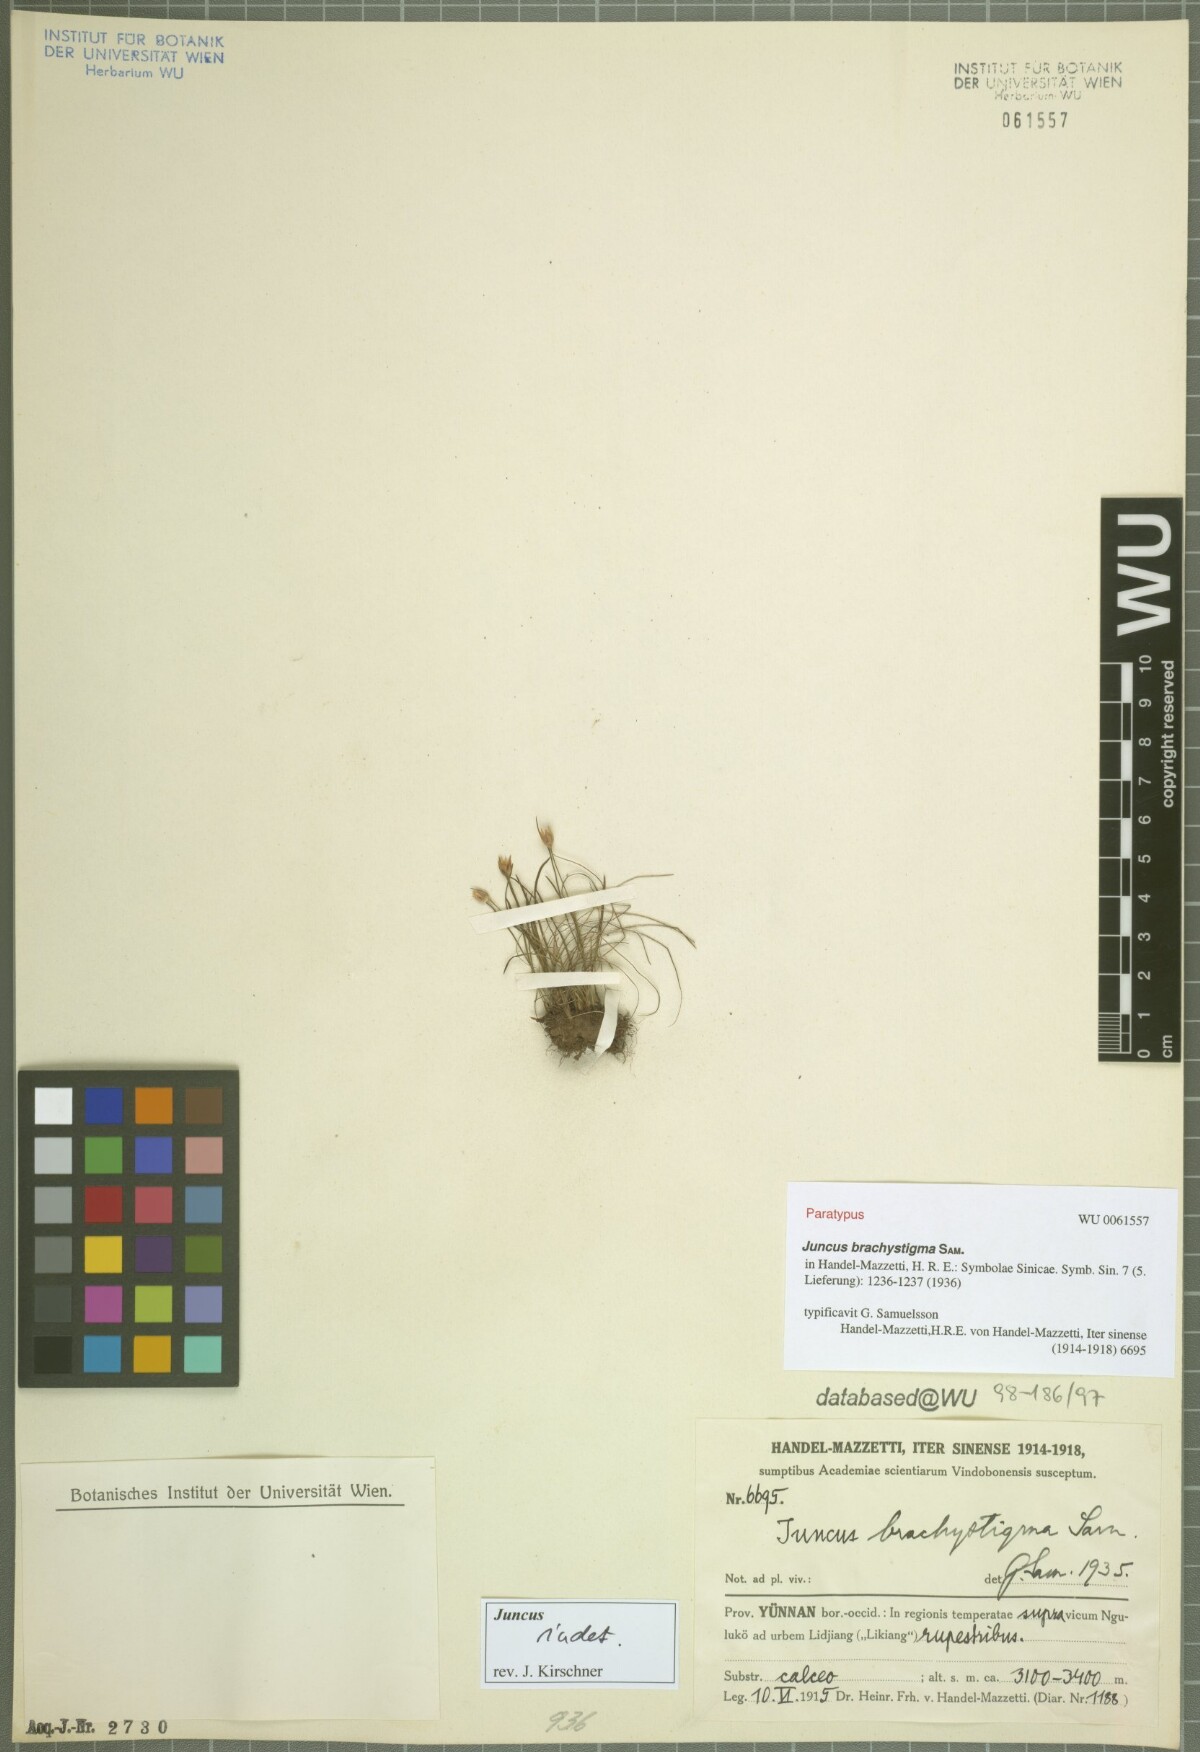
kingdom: Plantae
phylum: Tracheophyta
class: Liliopsida
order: Poales
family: Juncaceae
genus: Juncus
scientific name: Juncus brachystigma
